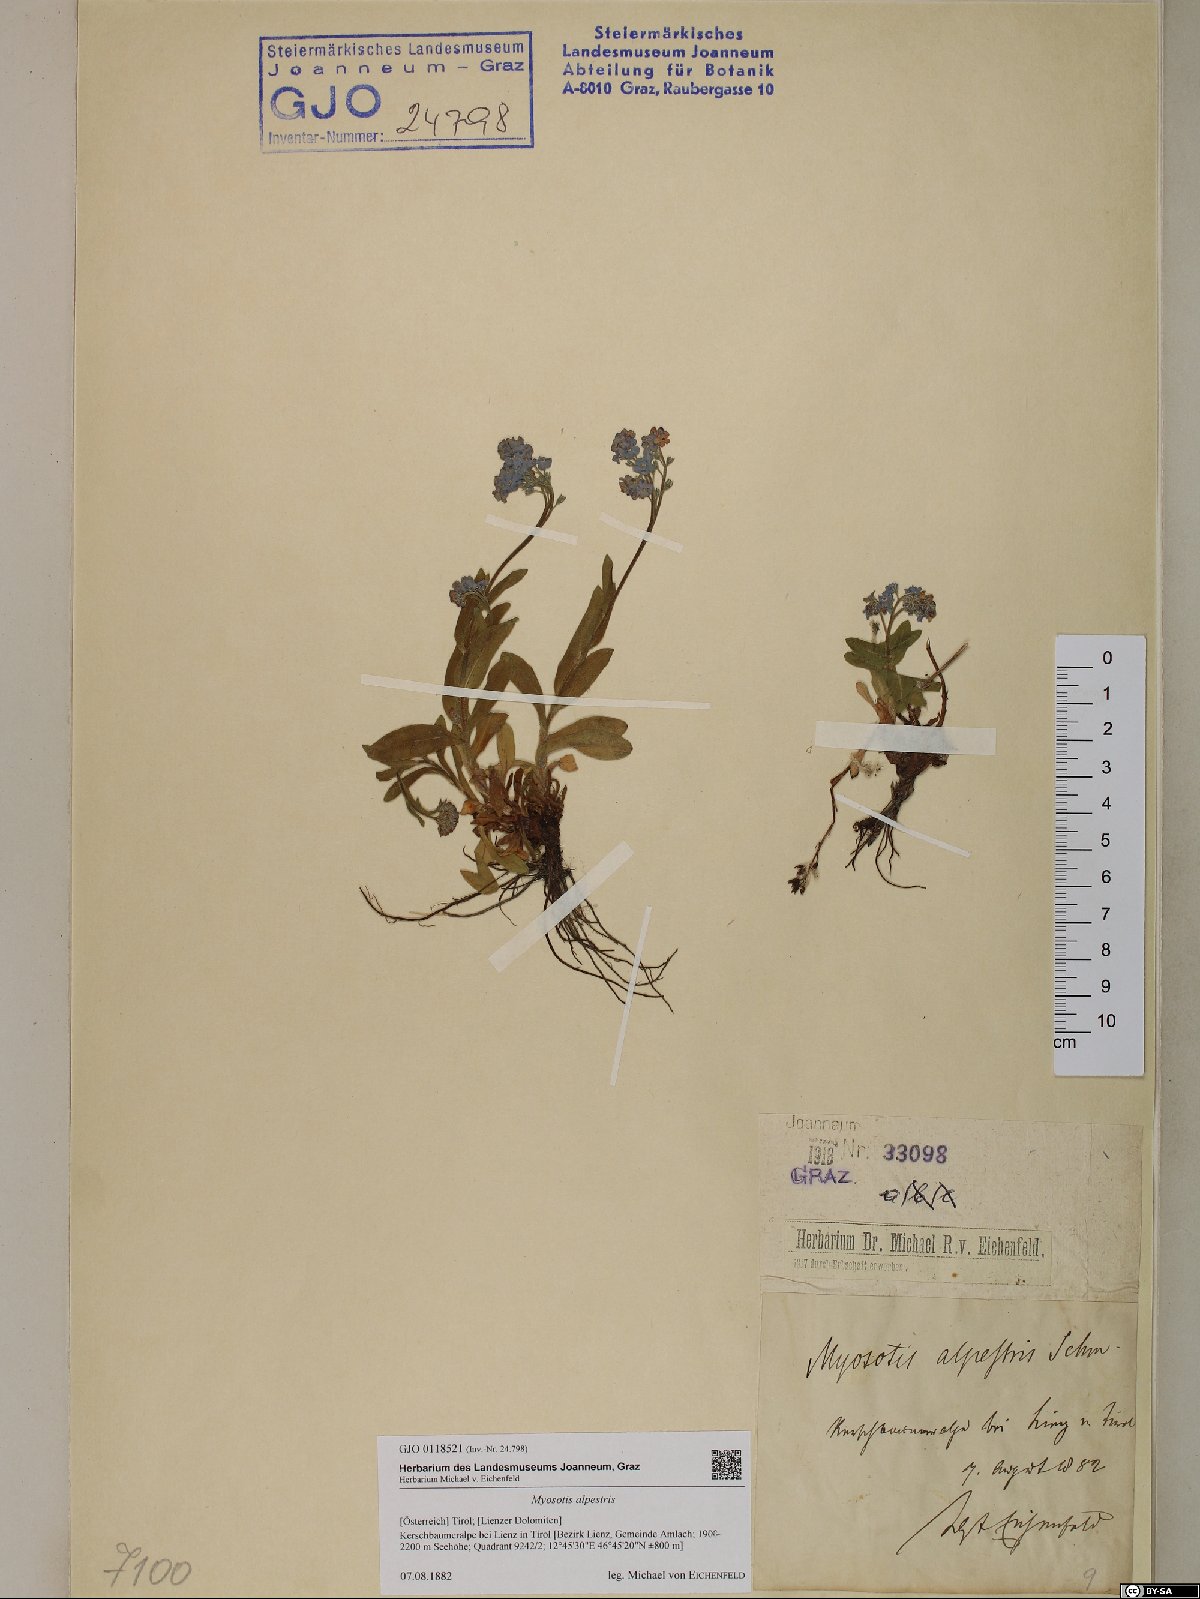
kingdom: Plantae
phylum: Tracheophyta
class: Magnoliopsida
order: Boraginales
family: Boraginaceae
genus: Myosotis
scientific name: Myosotis alpestris
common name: Alpine forget-me-not
